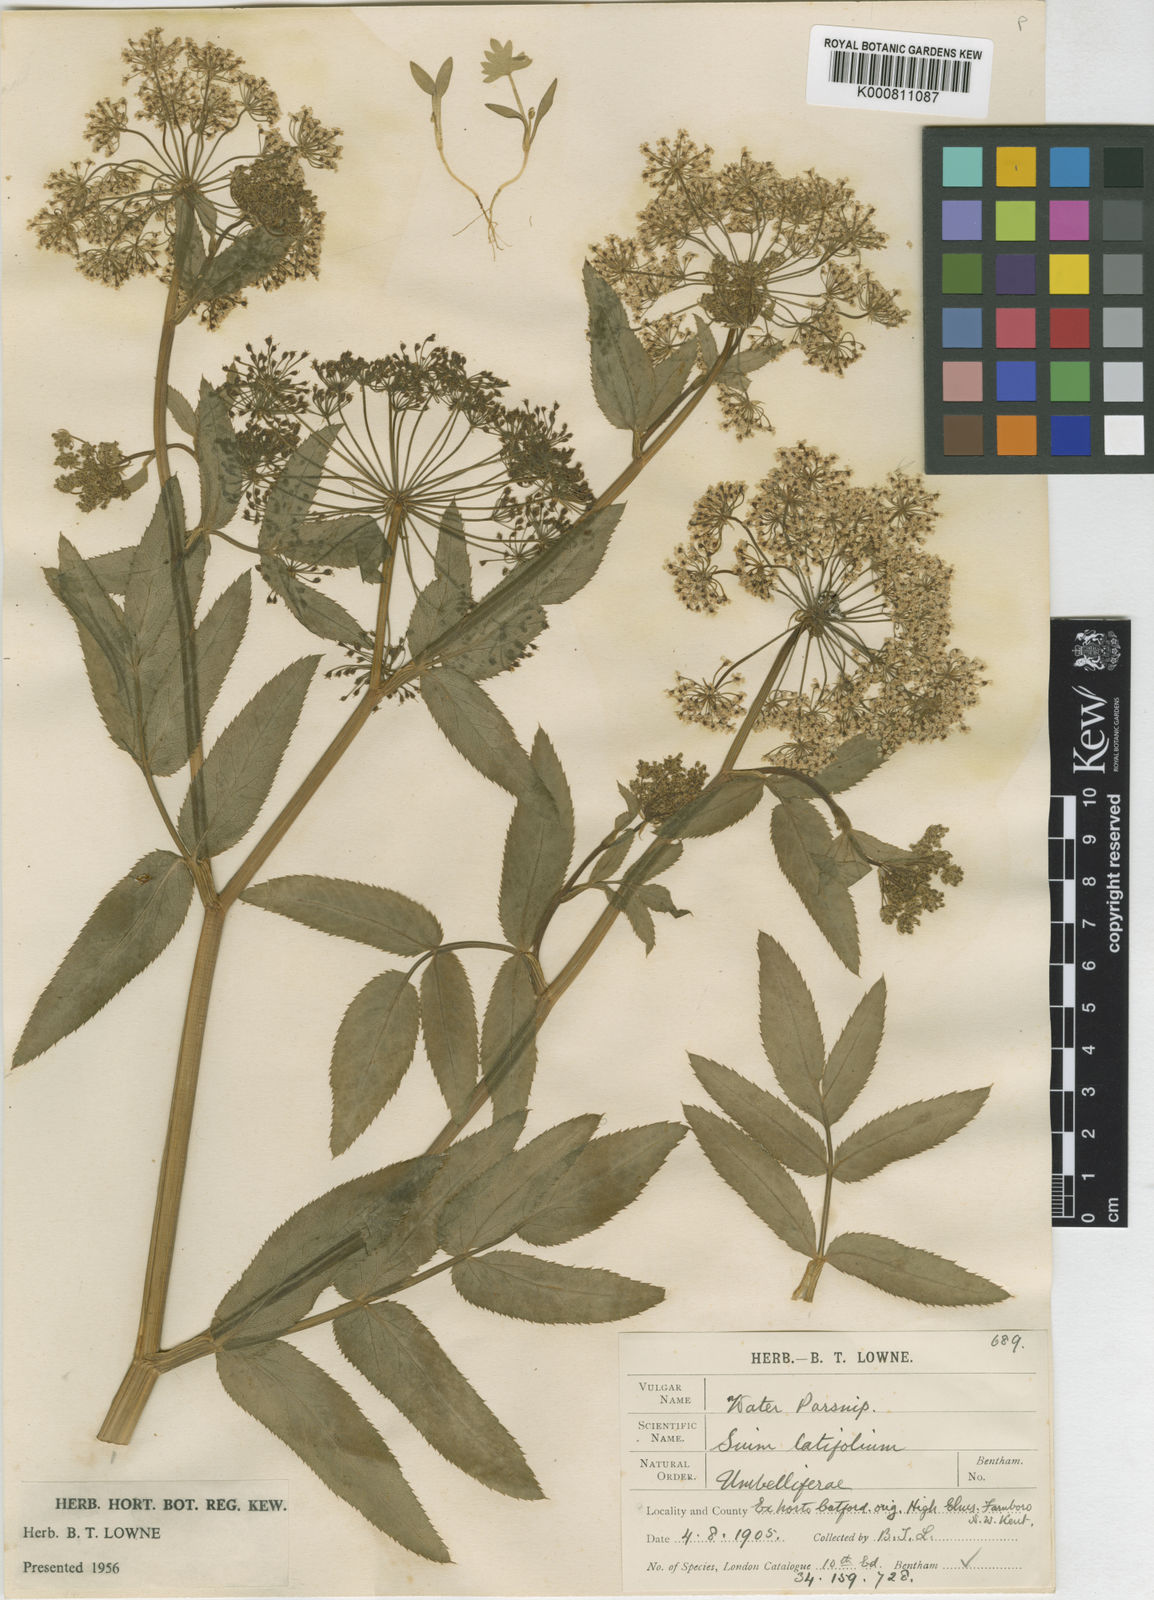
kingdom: Plantae
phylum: Tracheophyta
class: Magnoliopsida
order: Apiales
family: Apiaceae
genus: Sium
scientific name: Sium latifolium
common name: Greater water-parsnip
